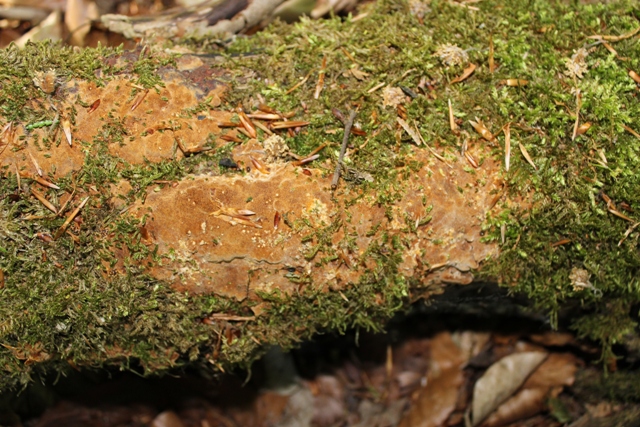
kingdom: Fungi
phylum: Basidiomycota
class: Agaricomycetes
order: Hymenochaetales
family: Hymenochaetaceae
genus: Fuscoporia
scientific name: Fuscoporia ferrea
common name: skorpe-ildporesvamp
